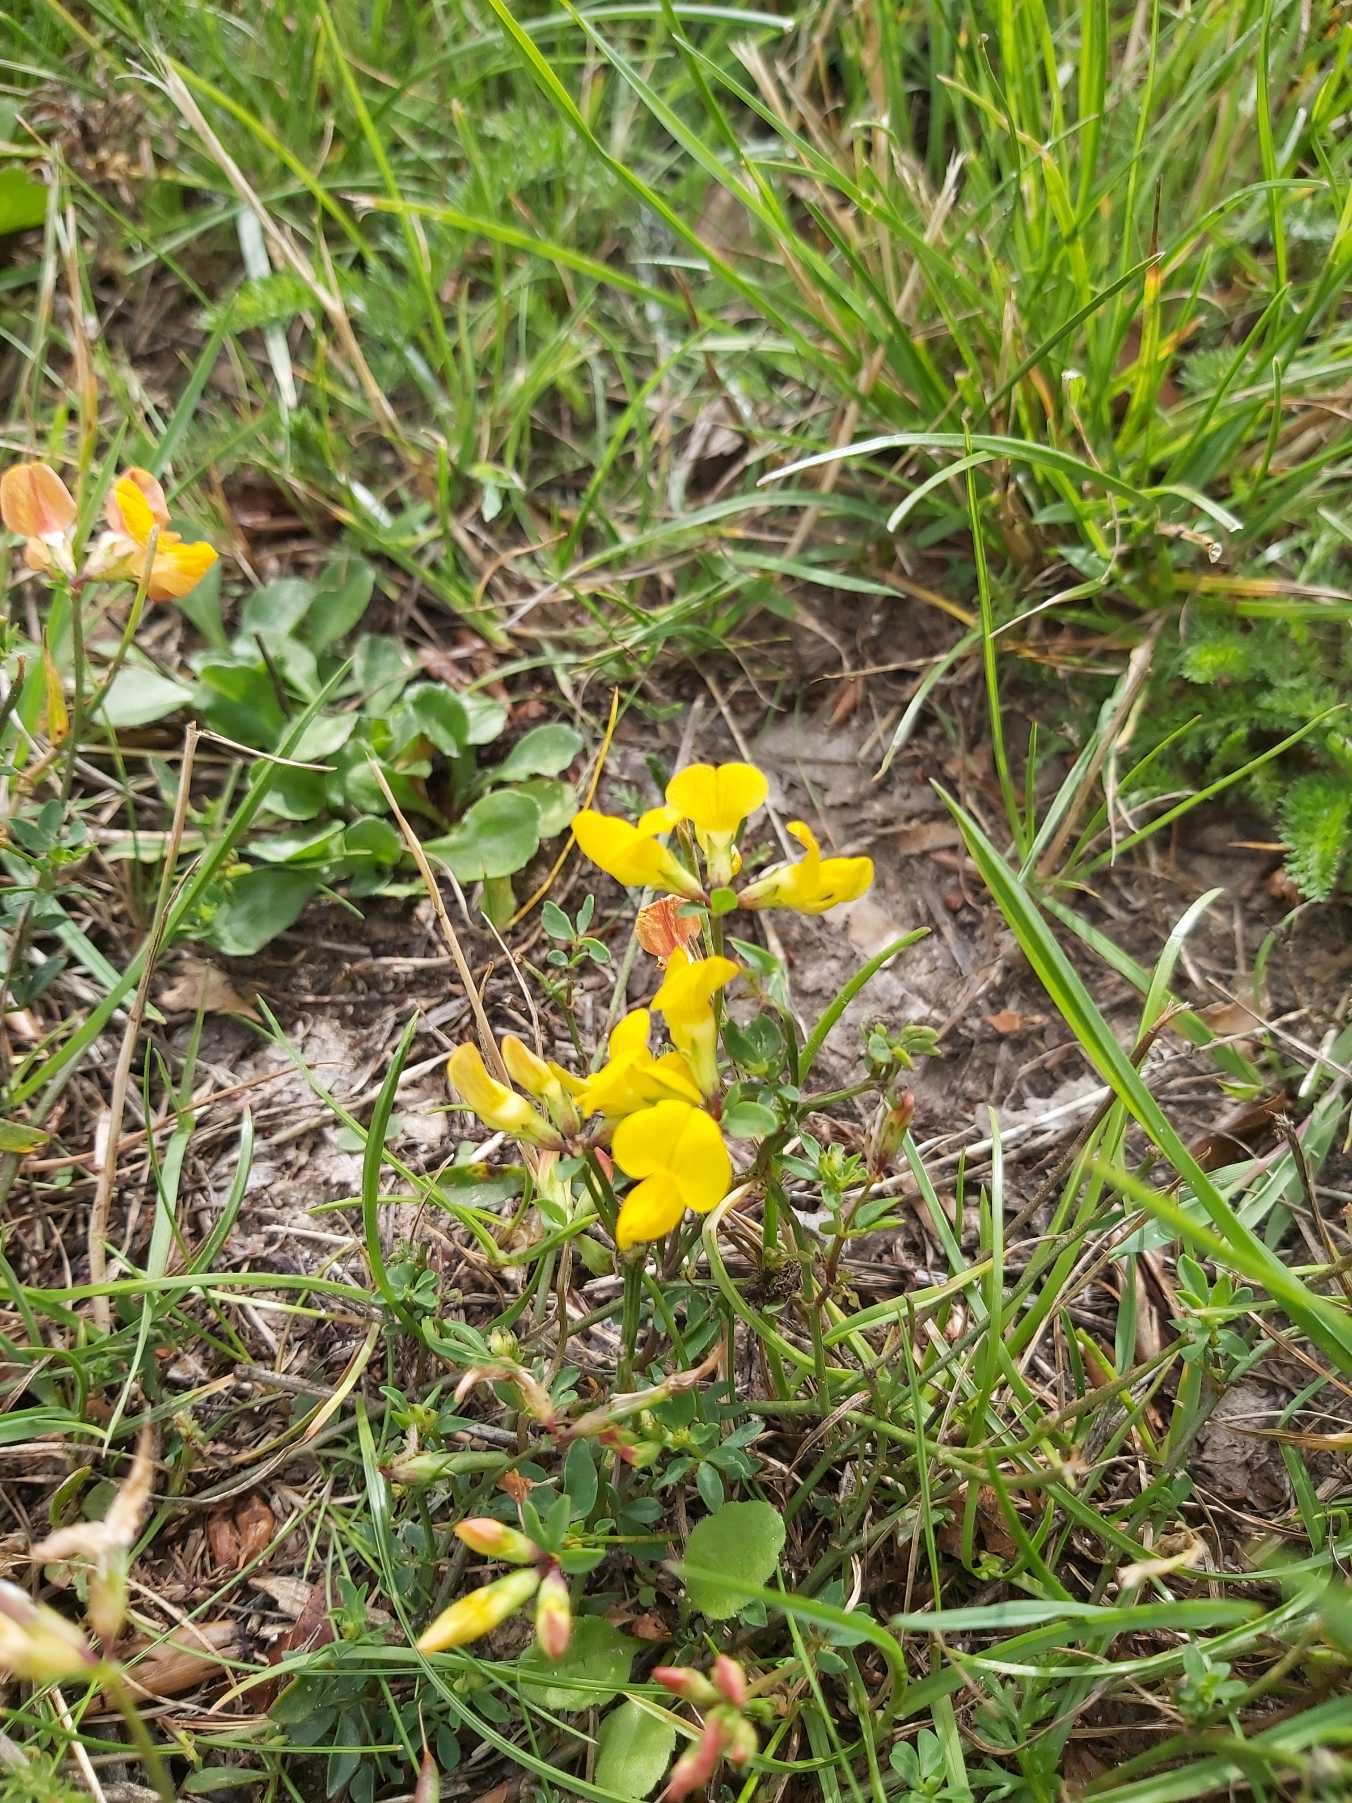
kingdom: Plantae
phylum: Tracheophyta
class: Magnoliopsida
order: Fabales
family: Fabaceae
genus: Lotus
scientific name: Lotus corniculatus
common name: Almindelig kællingetand
